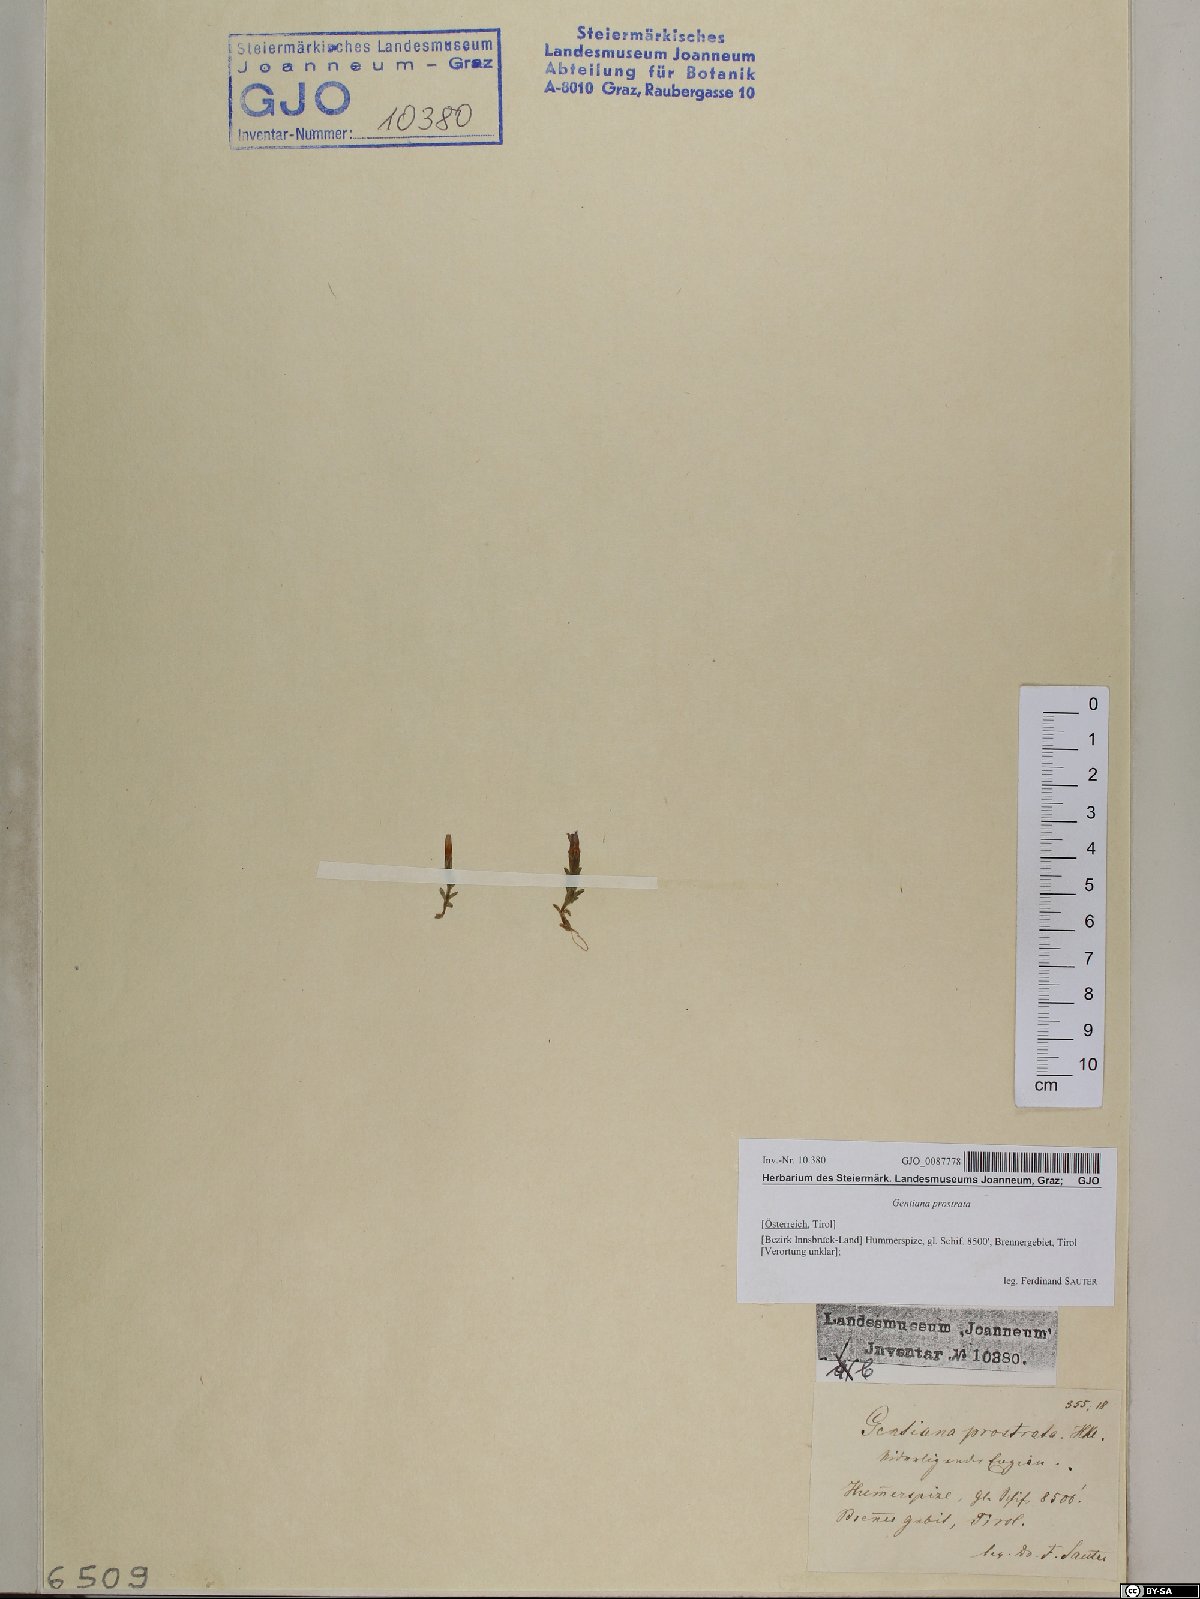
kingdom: Plantae
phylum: Tracheophyta
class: Magnoliopsida
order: Gentianales
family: Gentianaceae
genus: Gentiana
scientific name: Gentiana prostrata
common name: Moss gentian
